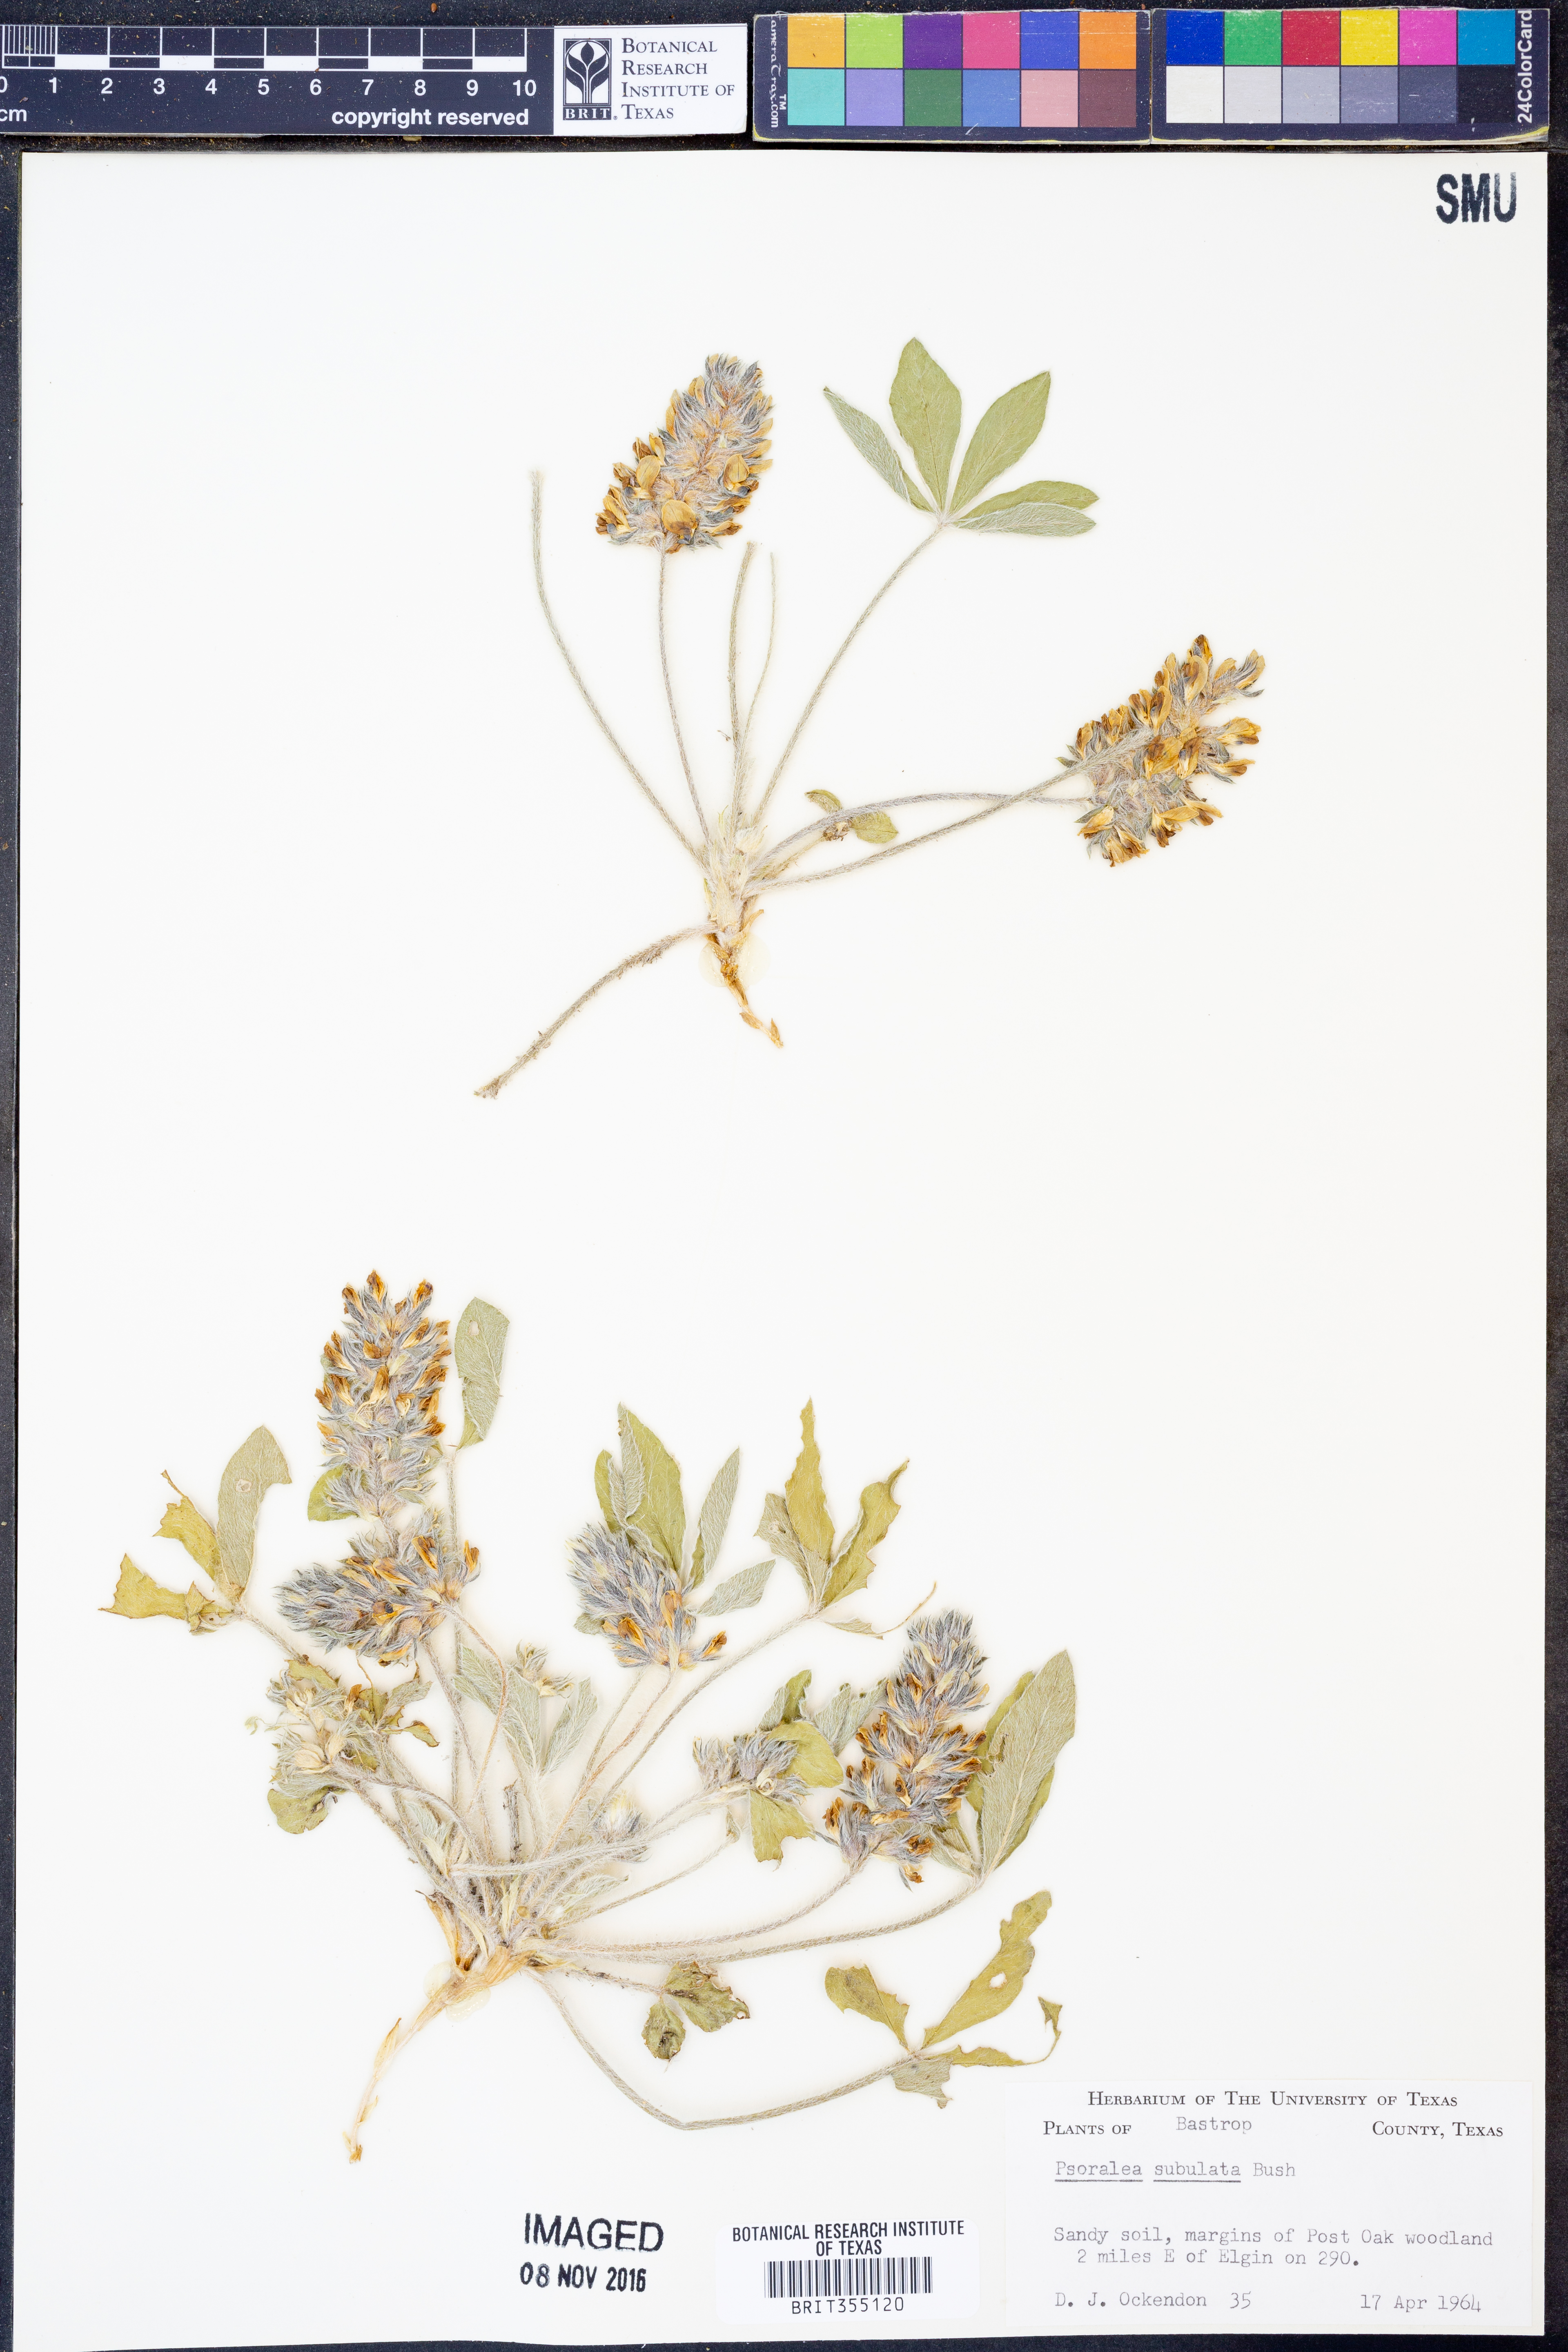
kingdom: Plantae
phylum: Tracheophyta
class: Magnoliopsida
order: Fabales
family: Fabaceae
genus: Pediomelum
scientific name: Pediomelum hypogaeum
